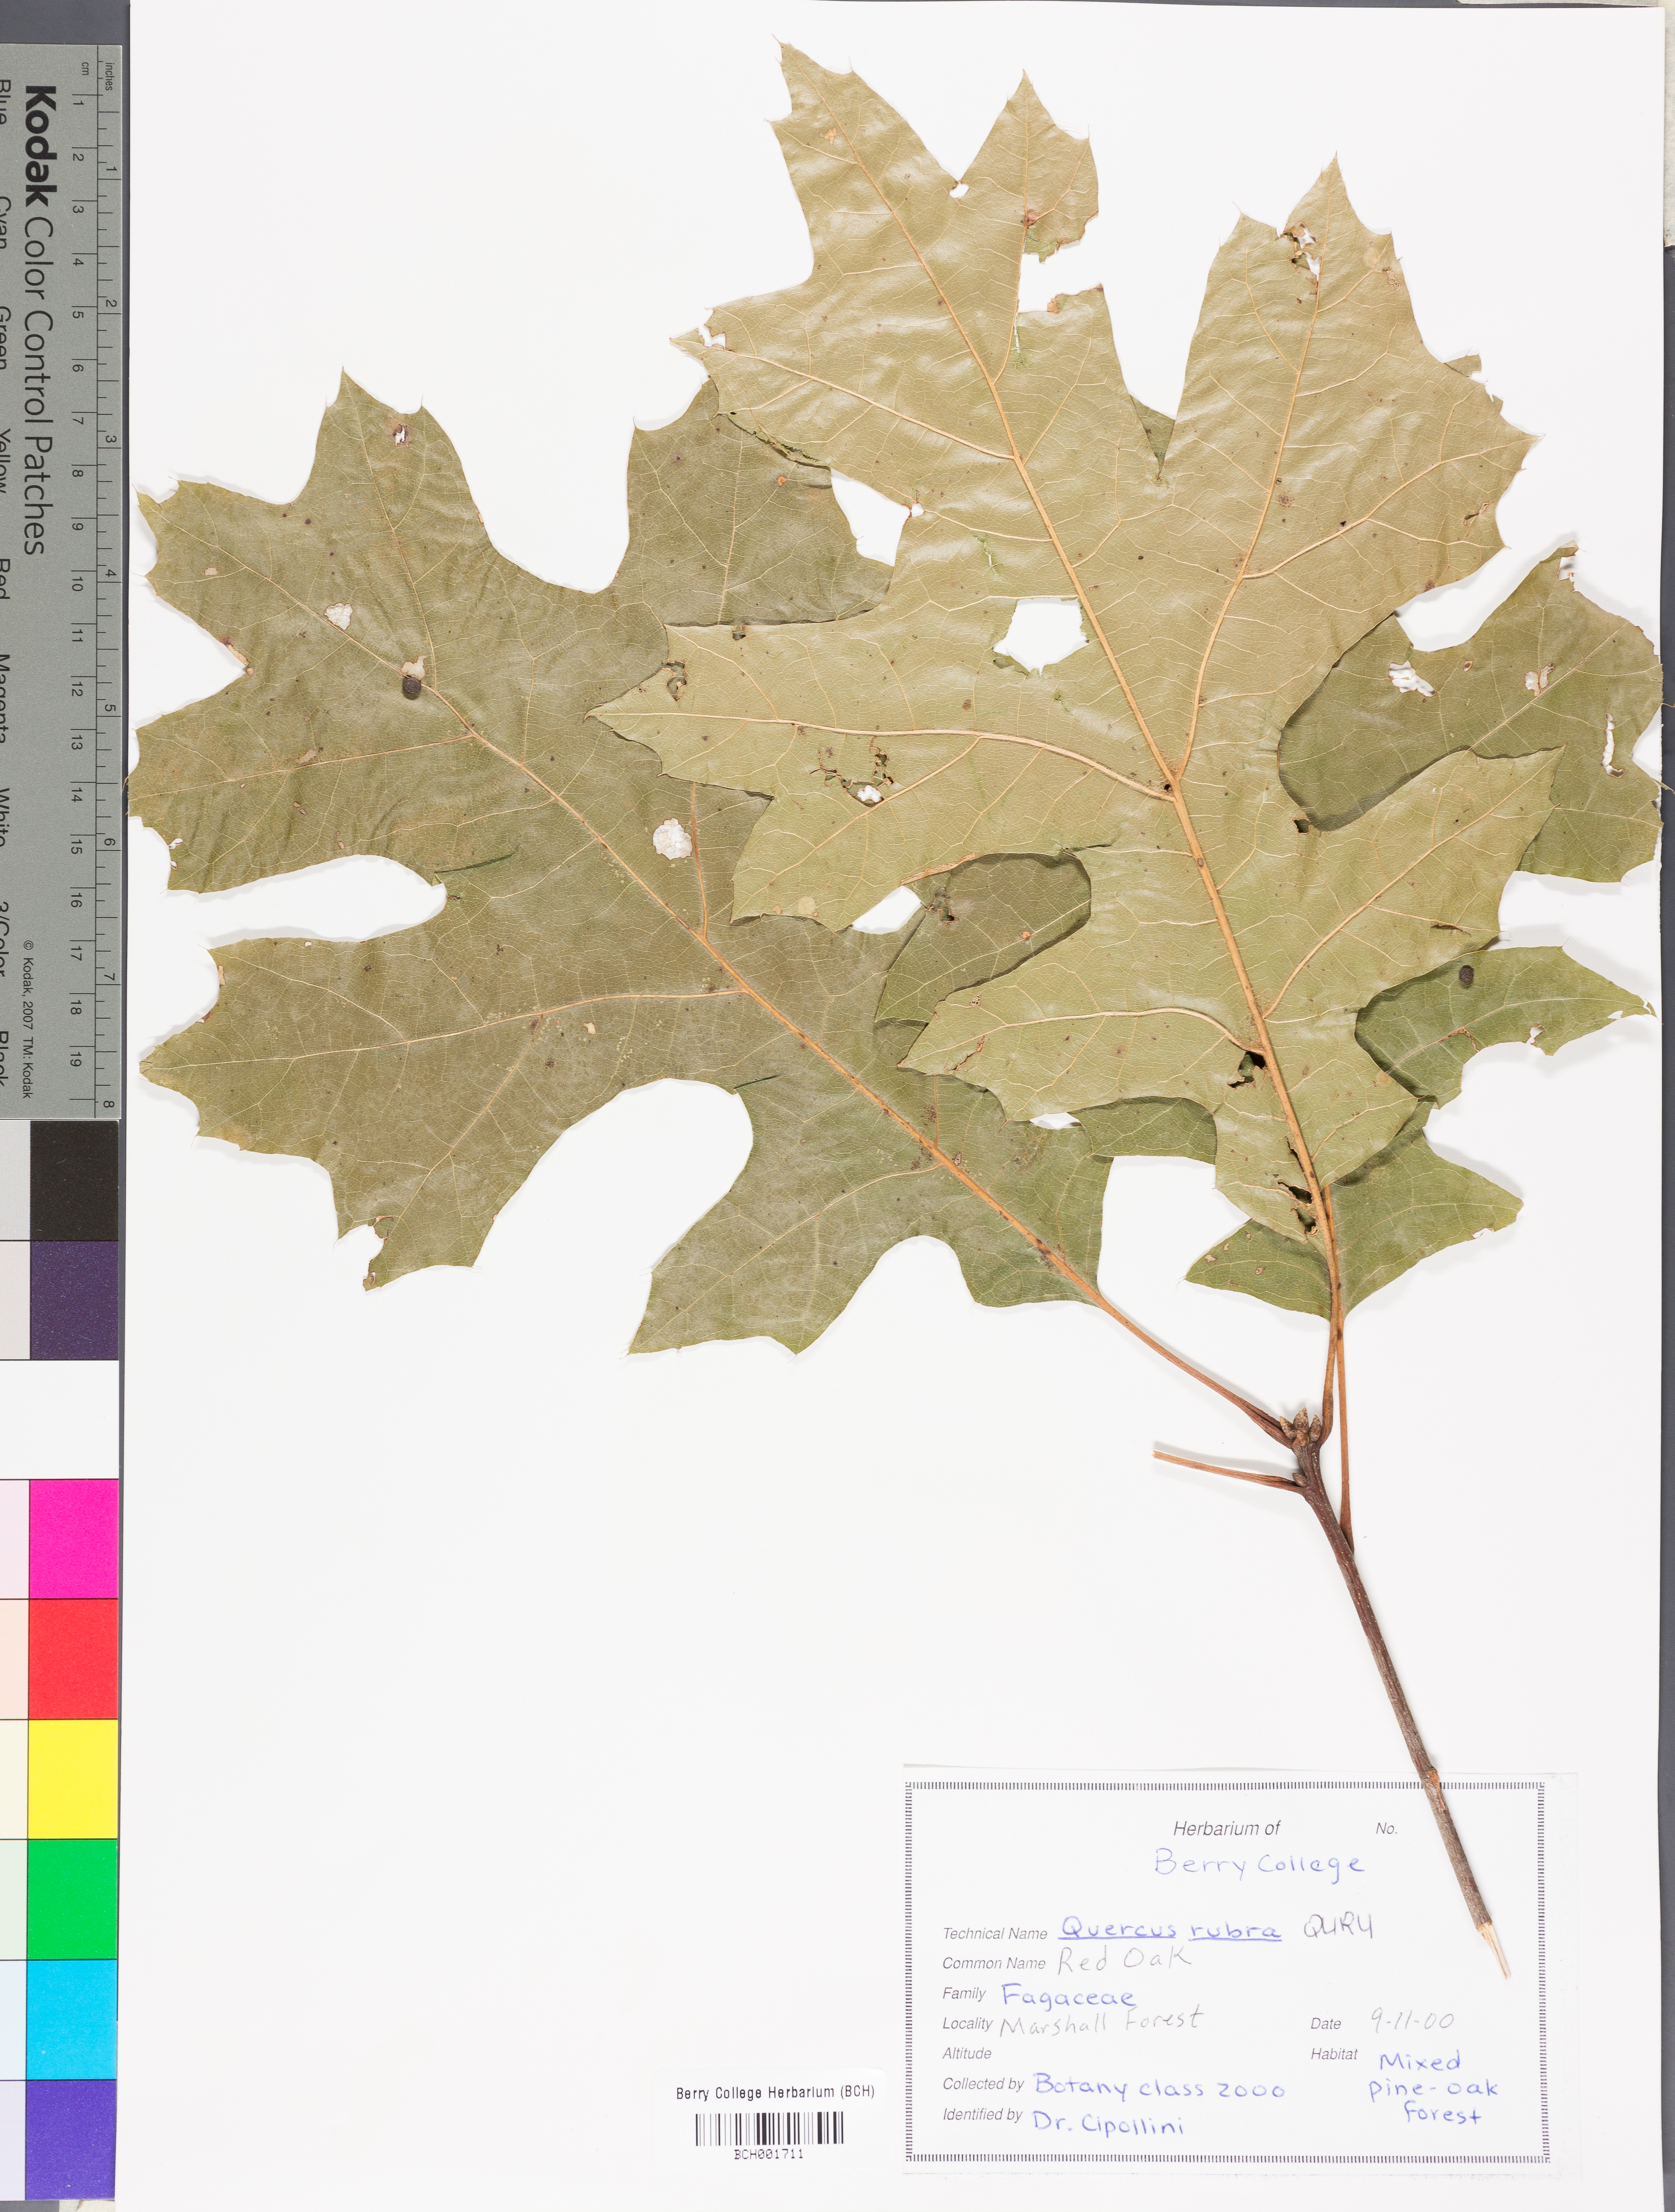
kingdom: Plantae
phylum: Tracheophyta
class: Magnoliopsida
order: Fagales
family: Fagaceae
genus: Quercus
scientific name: Quercus rubra
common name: Red oak
